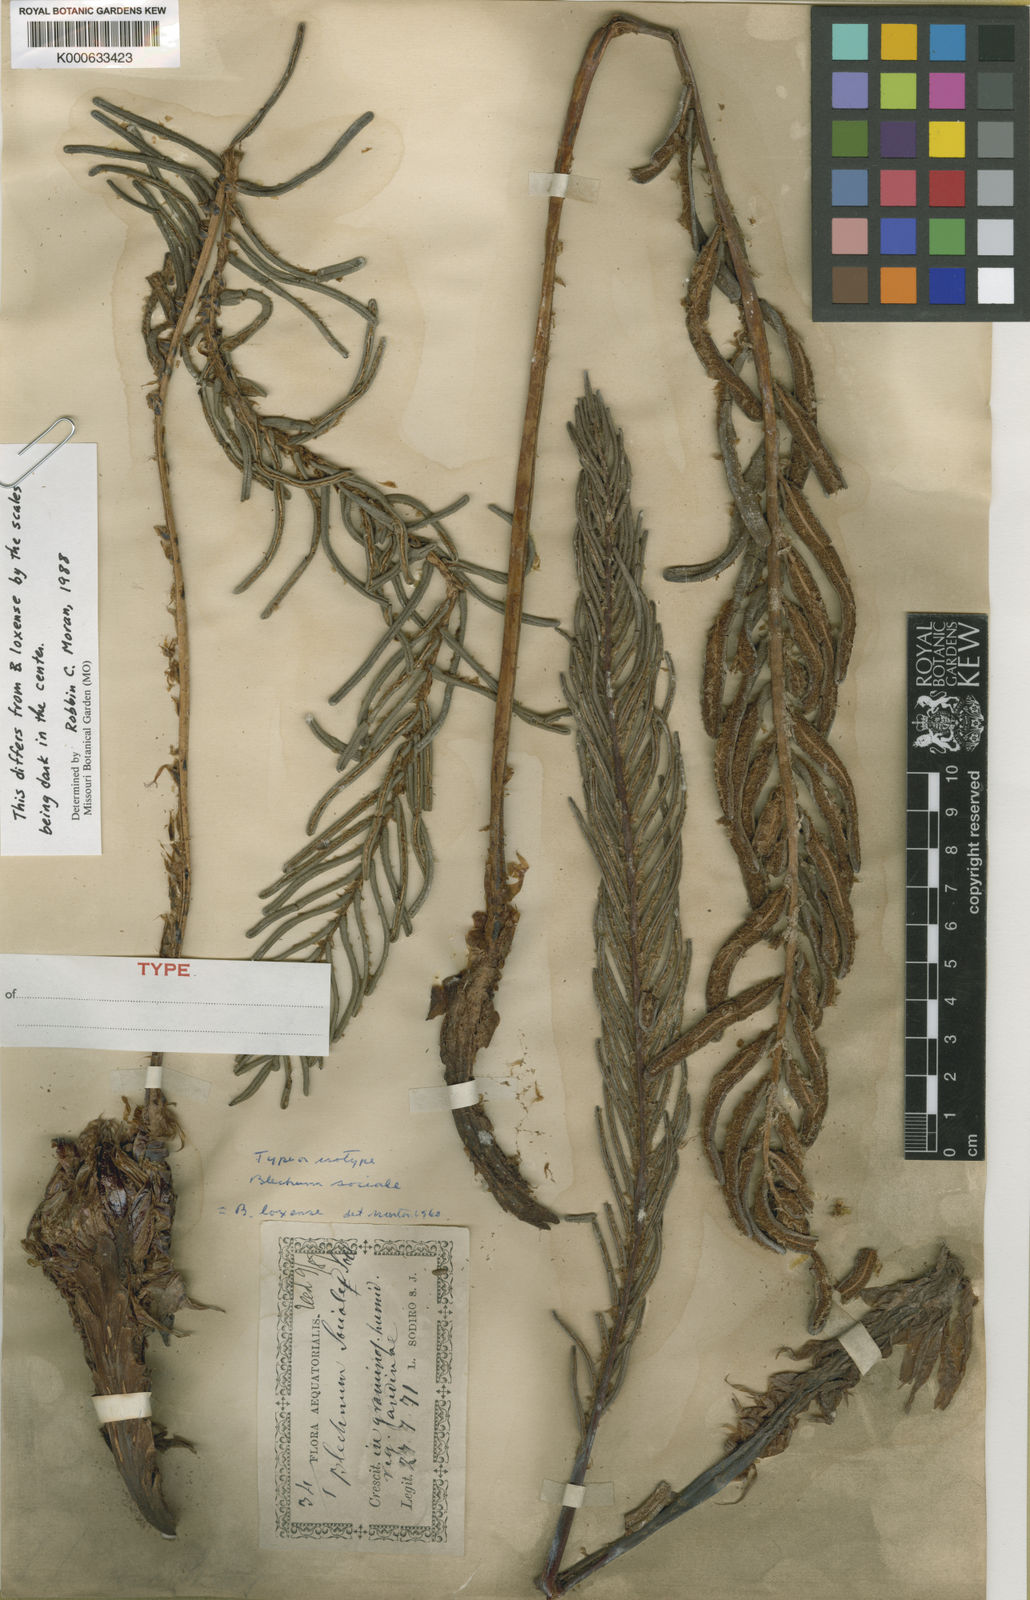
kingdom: Plantae
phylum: Tracheophyta
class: Polypodiopsida
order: Polypodiales
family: Blechnaceae
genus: Parablechnum
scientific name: Parablechnum loxense
